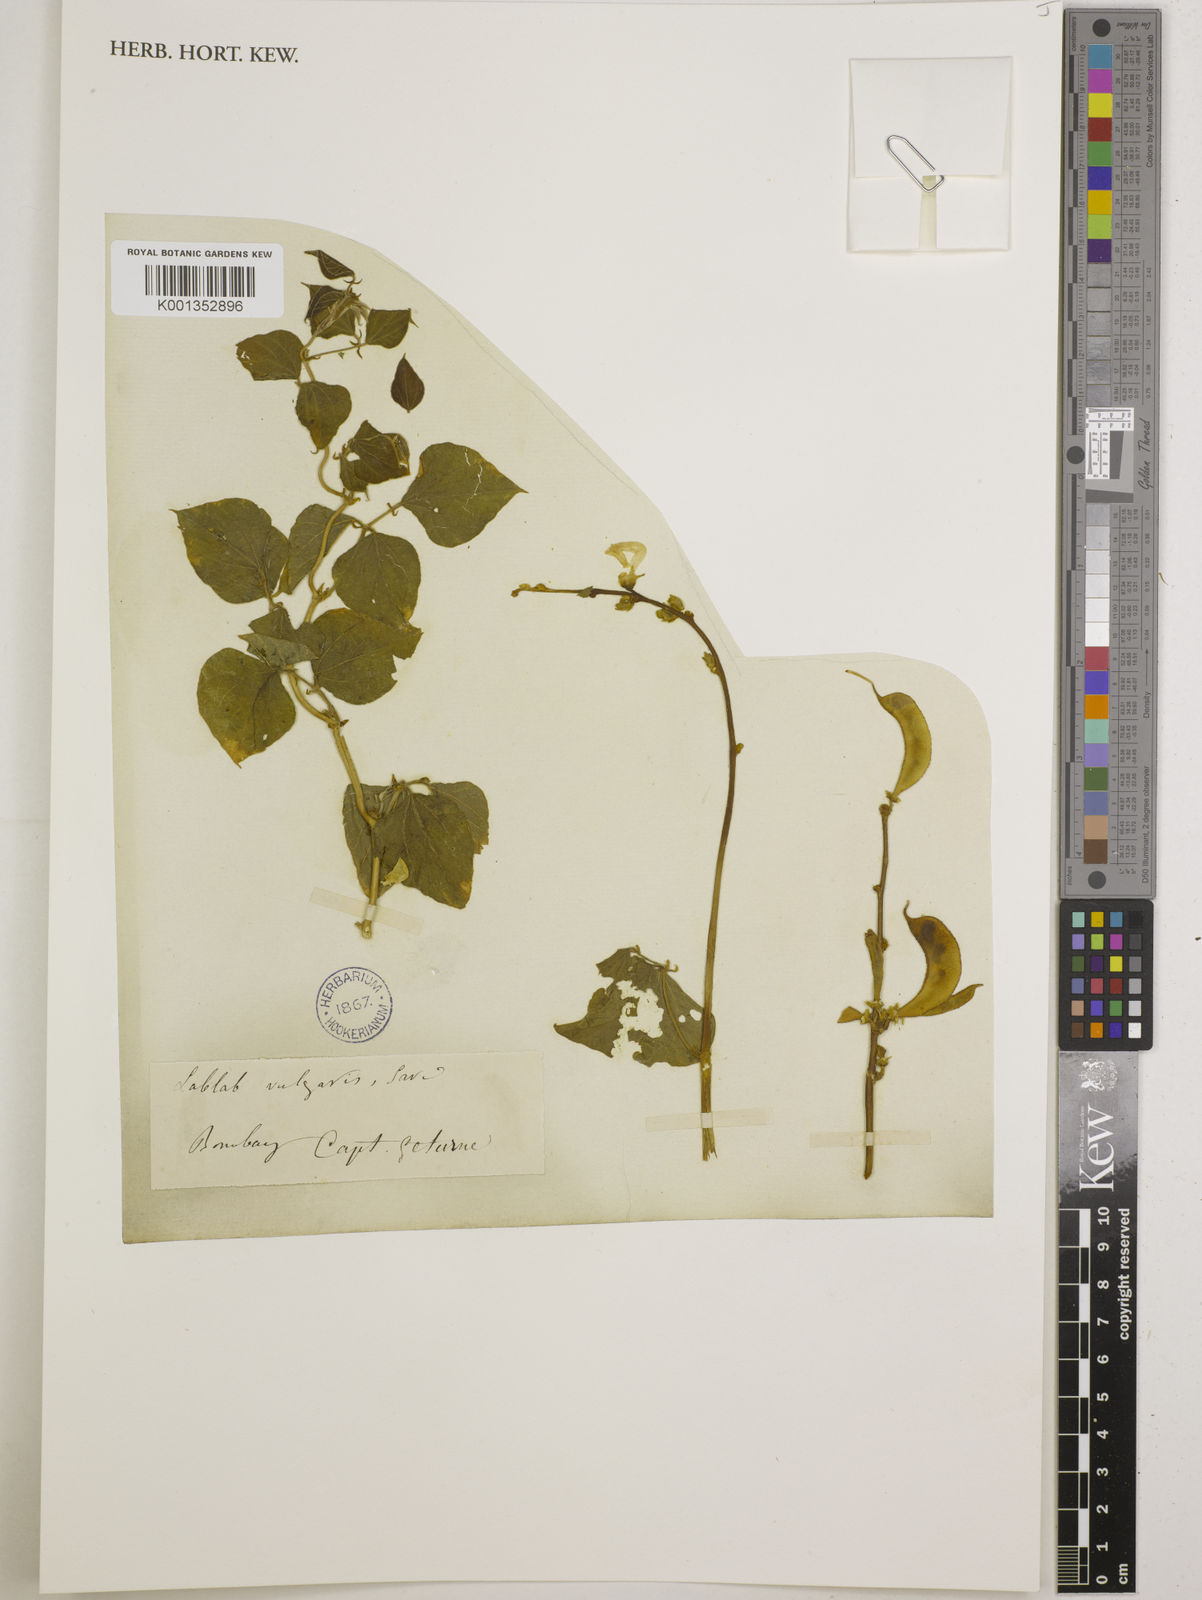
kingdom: Plantae
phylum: Tracheophyta
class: Magnoliopsida
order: Fabales
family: Fabaceae
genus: Lablab
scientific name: Lablab purpureus
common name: Lablab-bean
